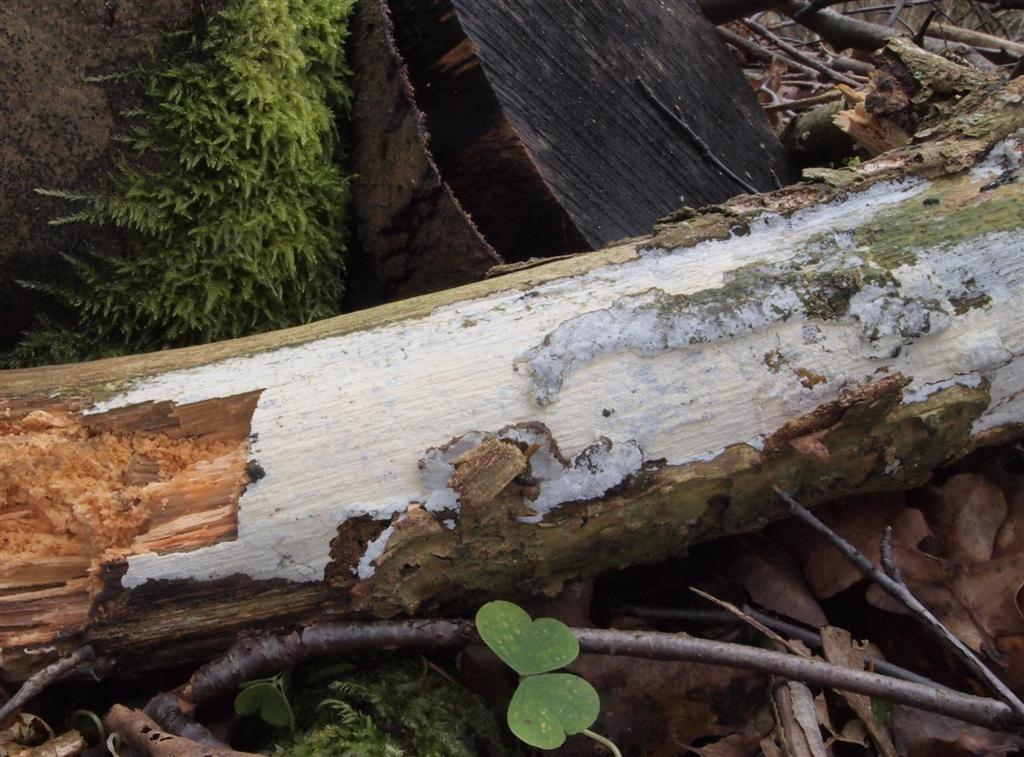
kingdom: Fungi
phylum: Basidiomycota
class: Agaricomycetes
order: Hymenochaetales
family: Schizoporaceae
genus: Xylodon
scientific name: Xylodon nesporii
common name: fintandet tandsvamp
